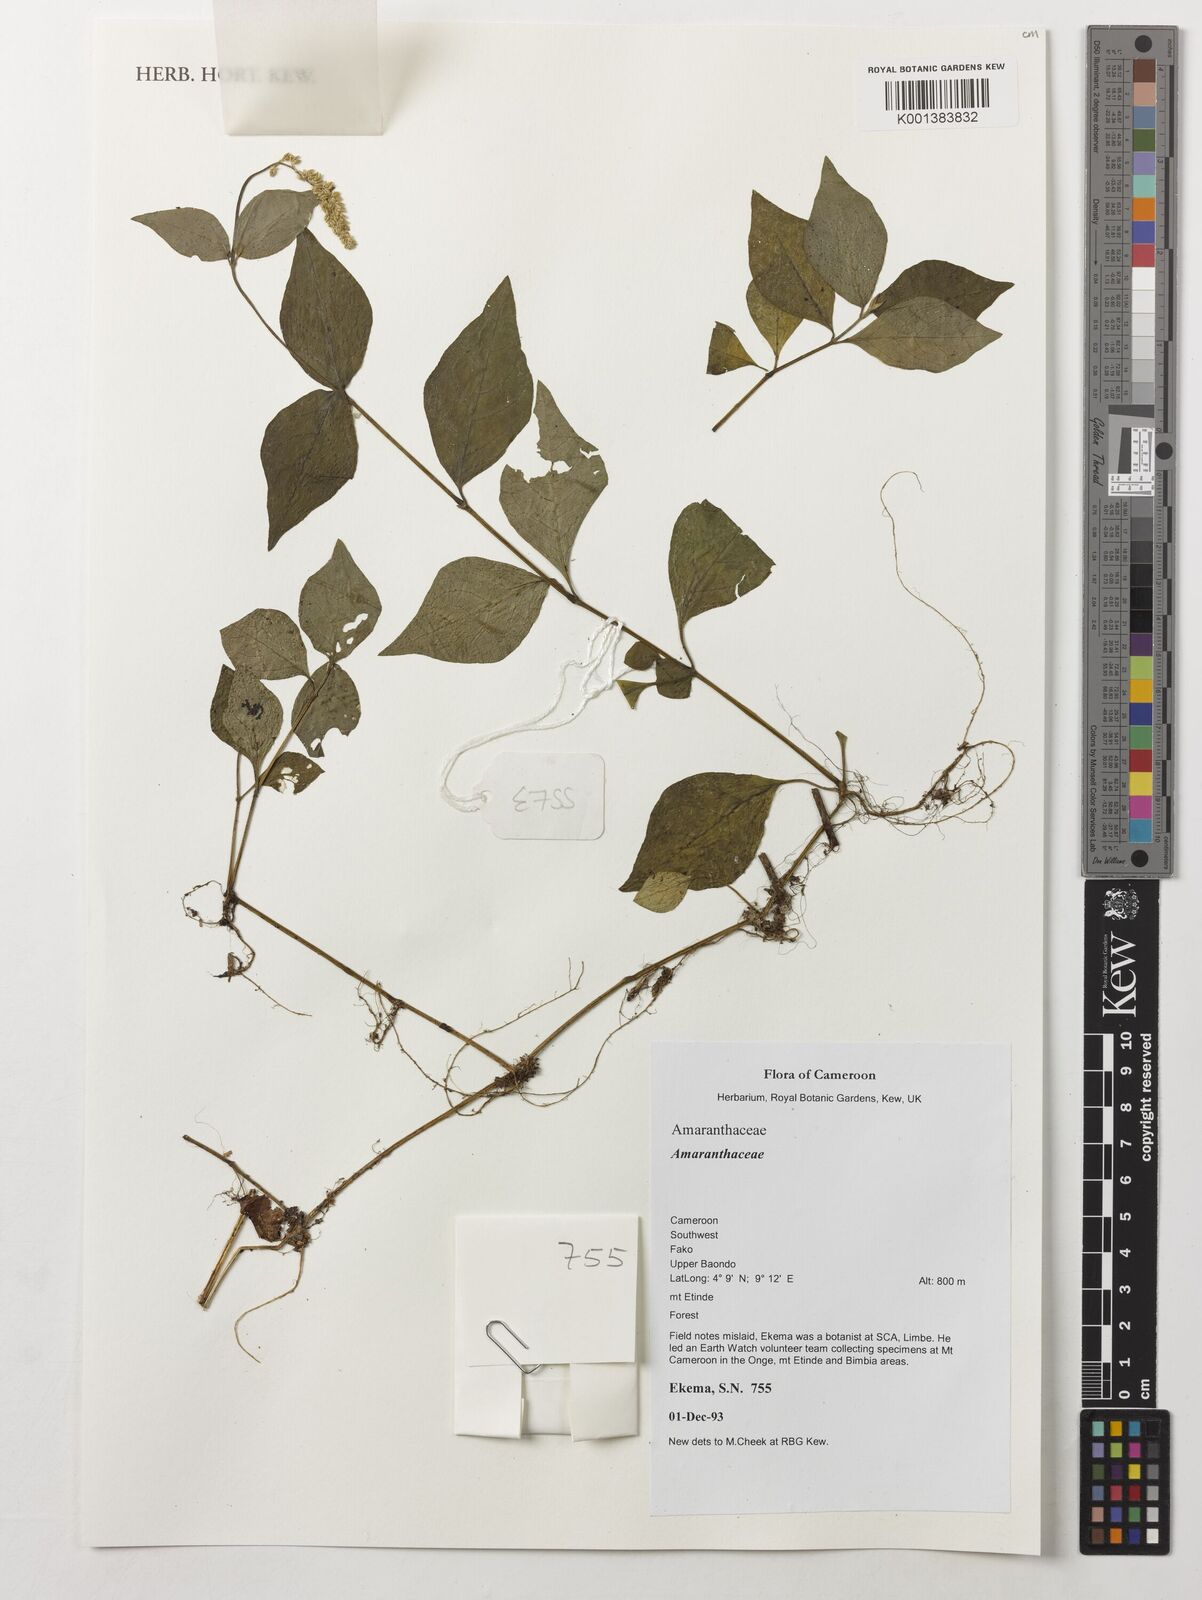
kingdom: Plantae
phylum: Tracheophyta
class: Magnoliopsida
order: Caryophyllales
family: Amaranthaceae
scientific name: Amaranthaceae
